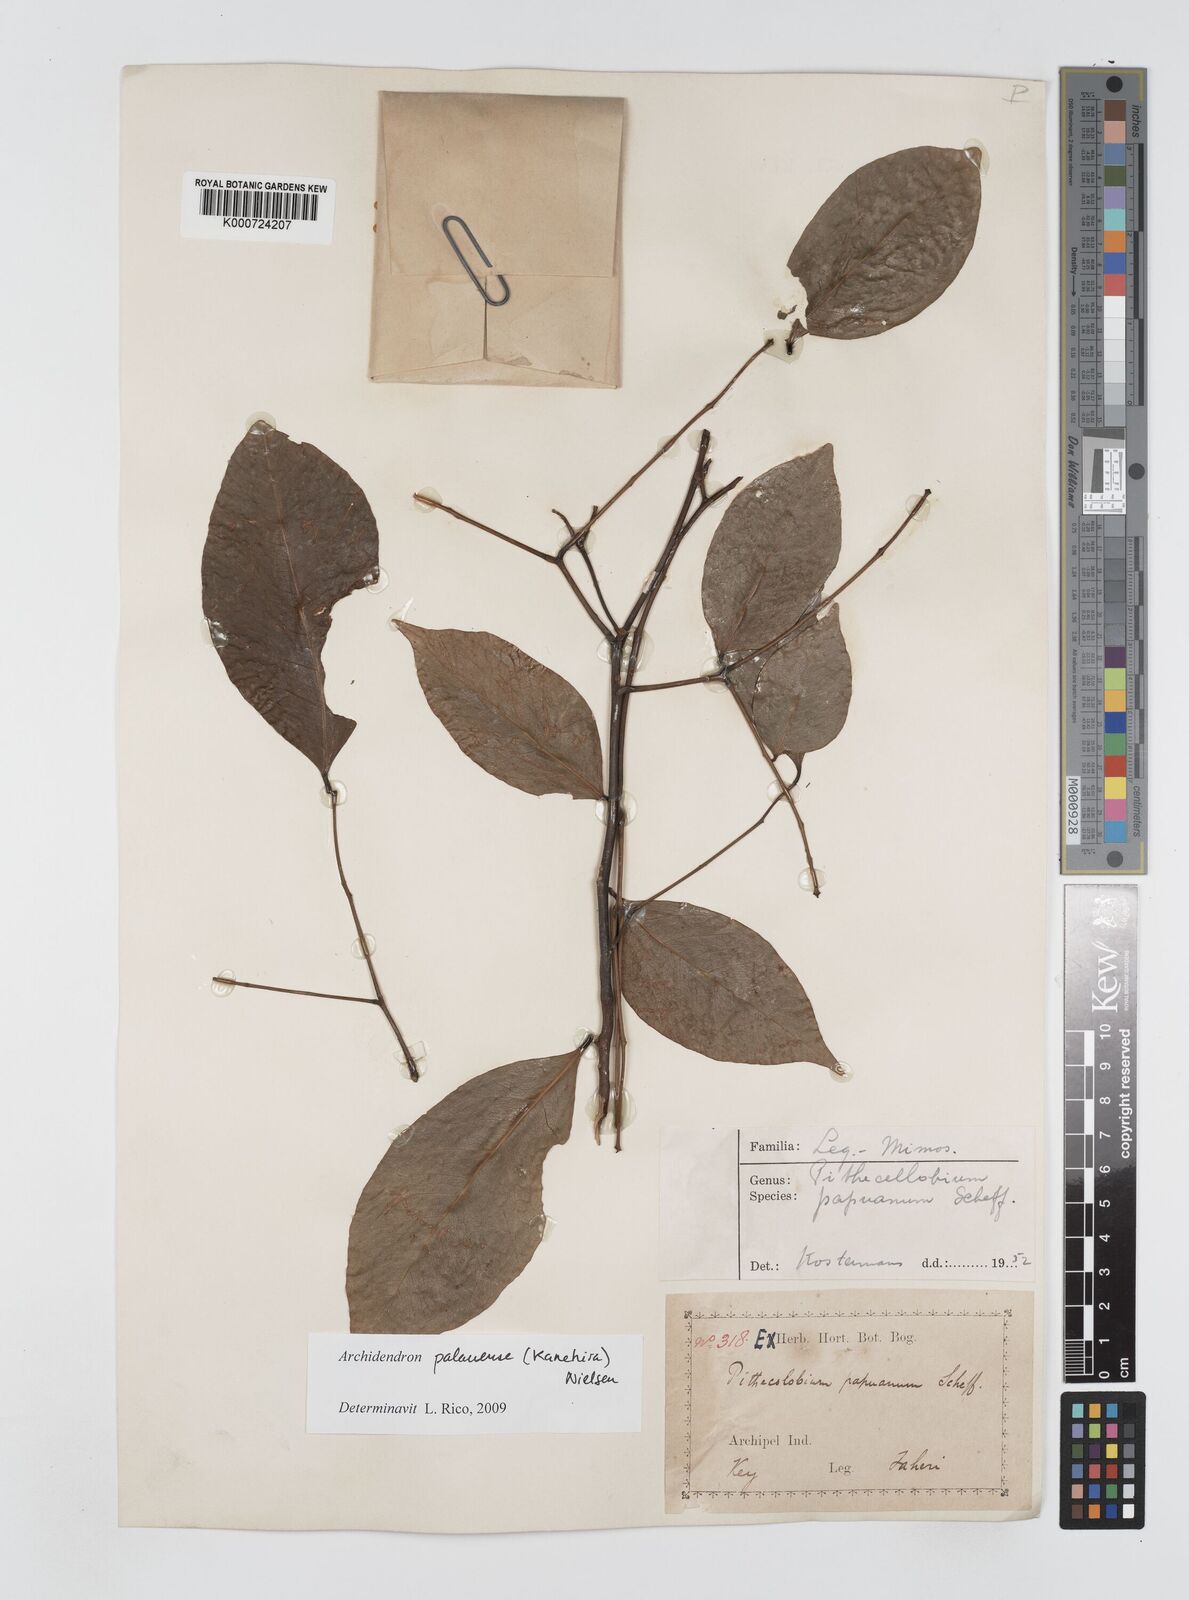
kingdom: Plantae
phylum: Tracheophyta
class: Magnoliopsida
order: Fabales
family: Fabaceae
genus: Archidendron
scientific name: Archidendron palauense
